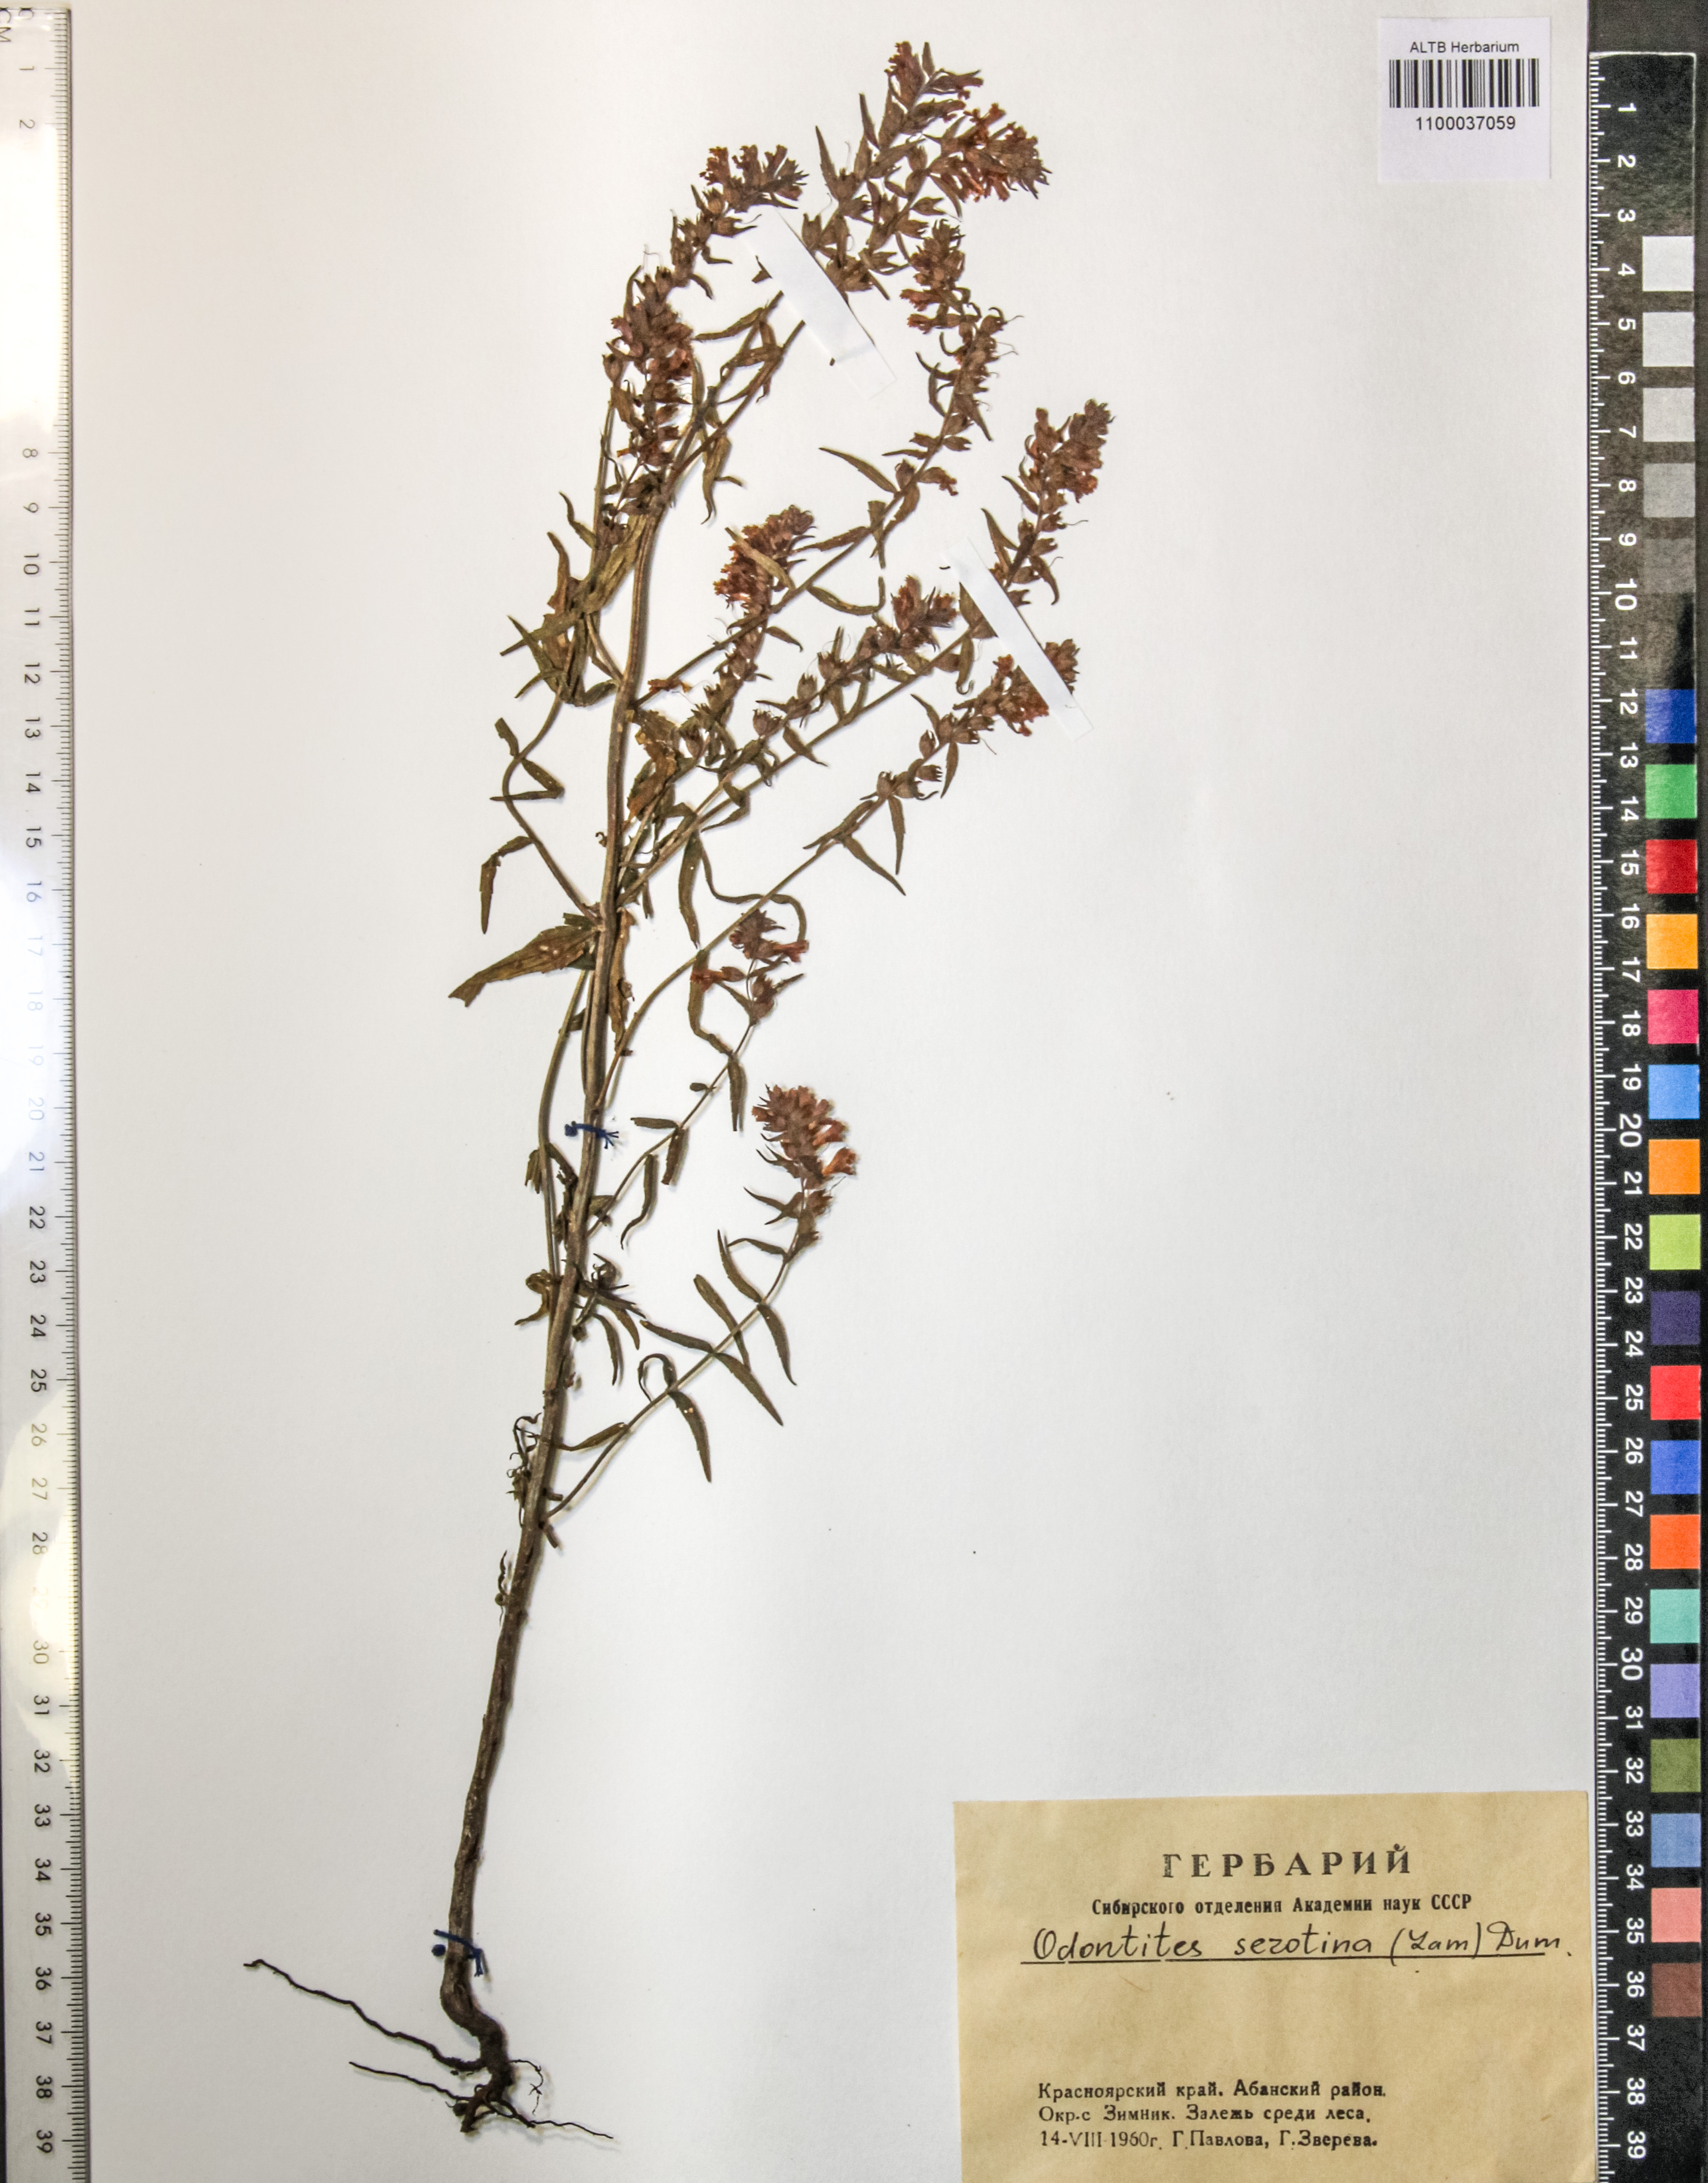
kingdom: Plantae
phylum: Tracheophyta
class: Magnoliopsida
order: Lamiales
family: Orobanchaceae
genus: Odontites
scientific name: Odontites vulgaris
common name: Broomrape
